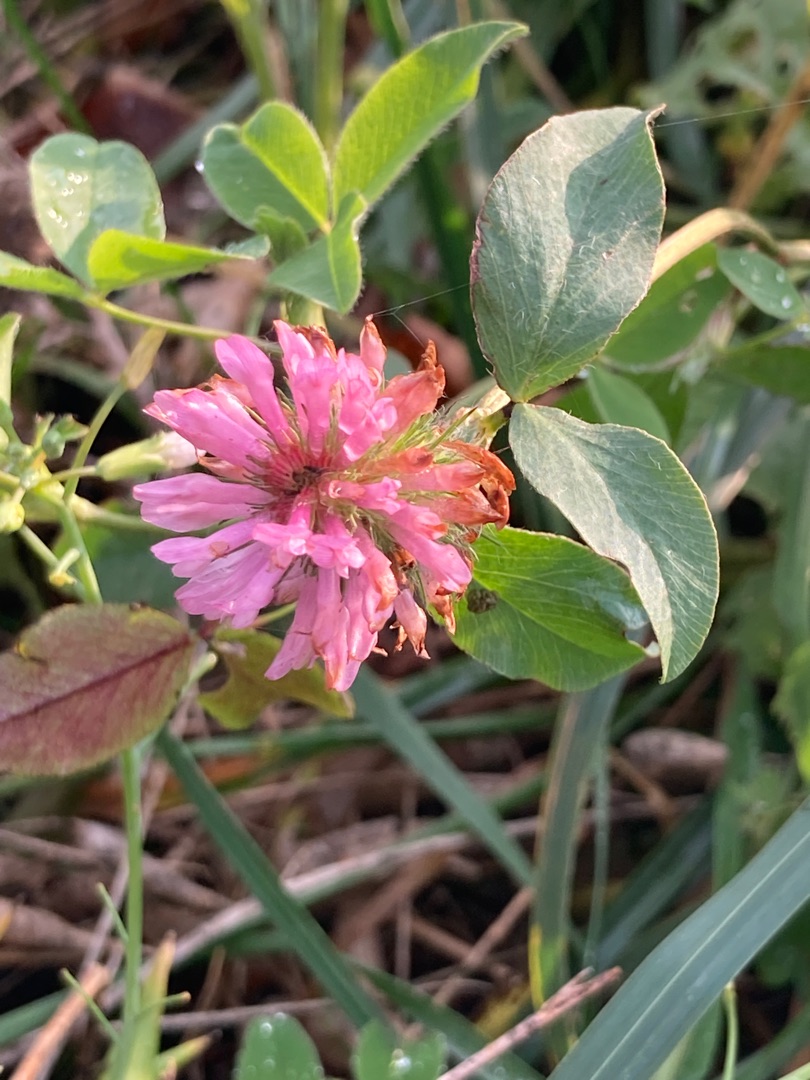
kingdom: Plantae
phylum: Tracheophyta
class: Magnoliopsida
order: Fabales
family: Fabaceae
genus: Trifolium
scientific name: Trifolium pratense
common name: Rød-kløver
